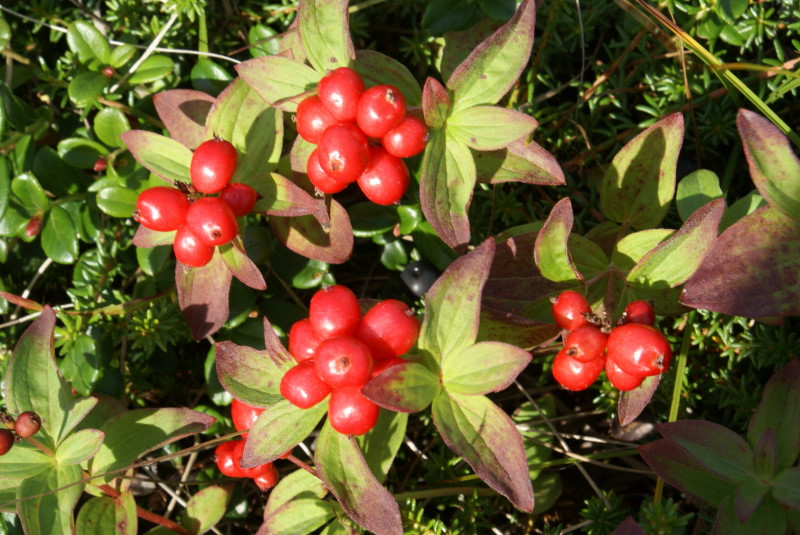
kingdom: Plantae
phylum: Tracheophyta
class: Magnoliopsida
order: Cornales
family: Cornaceae
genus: Cornus
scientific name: Cornus suecica
